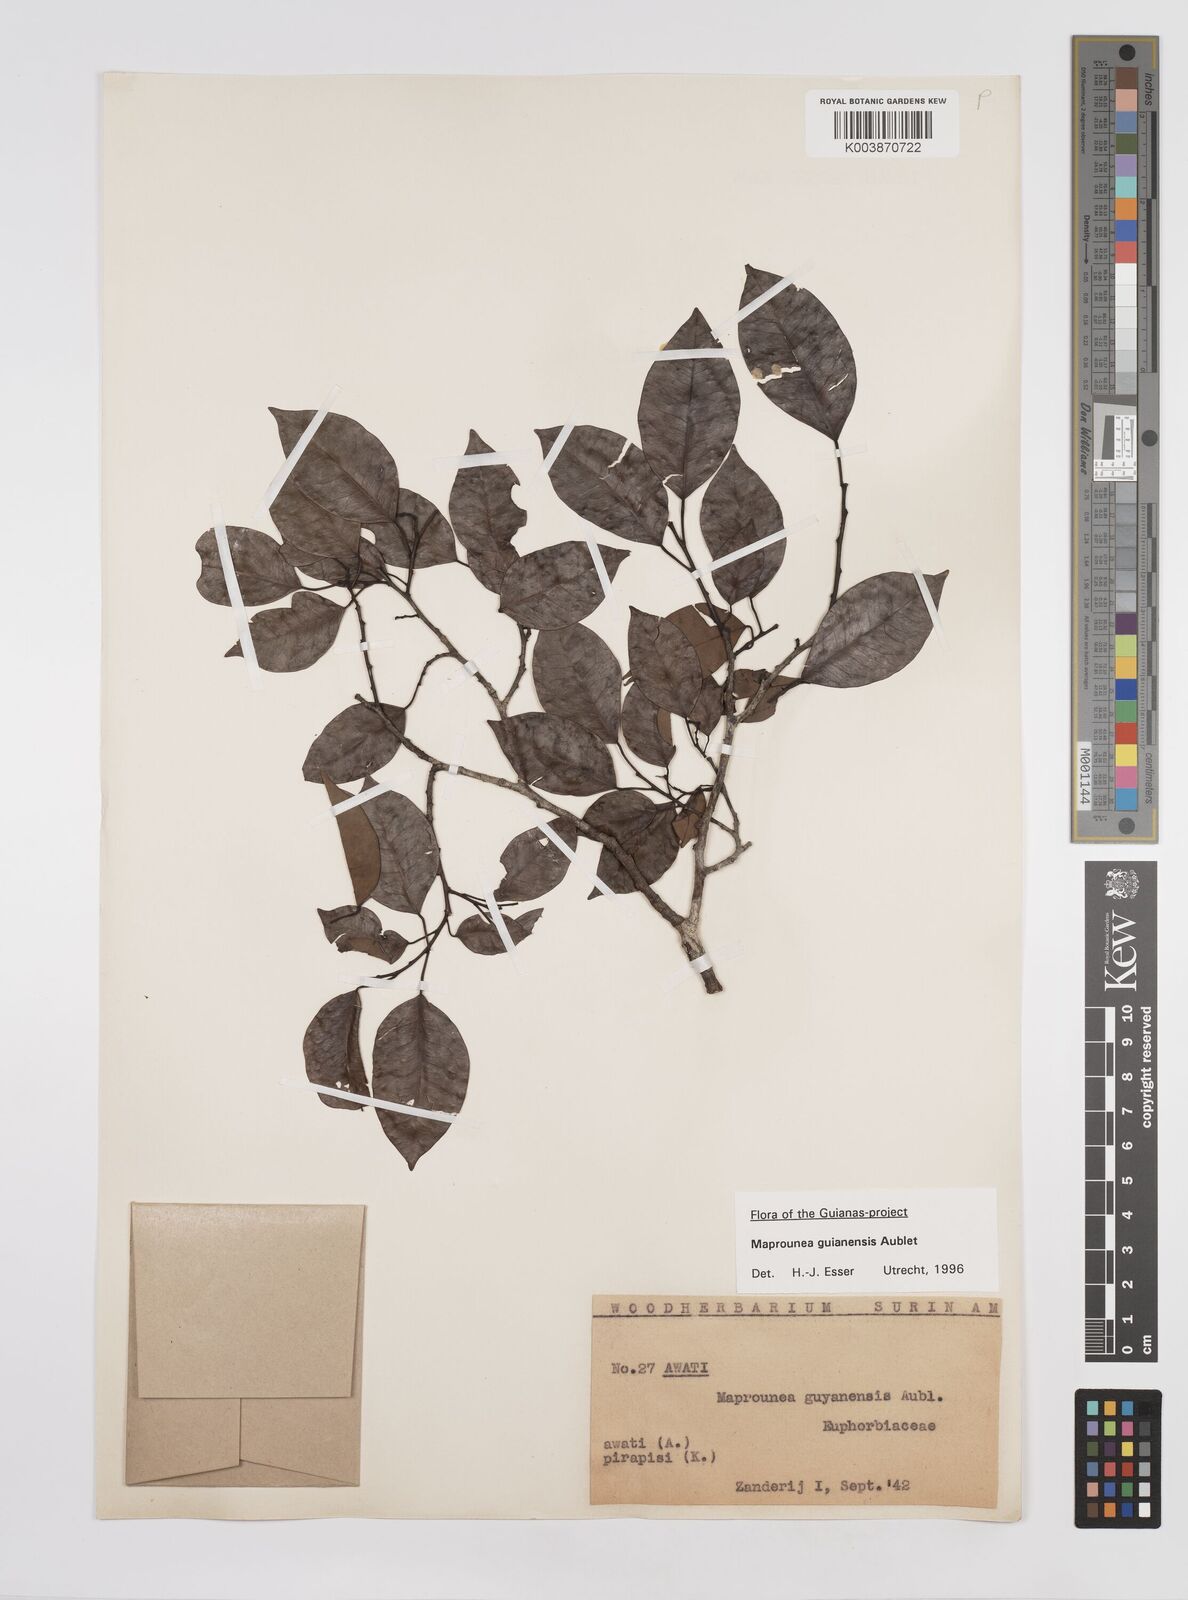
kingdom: Plantae
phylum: Tracheophyta
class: Magnoliopsida
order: Malpighiales
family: Euphorbiaceae
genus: Maprounea
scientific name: Maprounea guianensis
